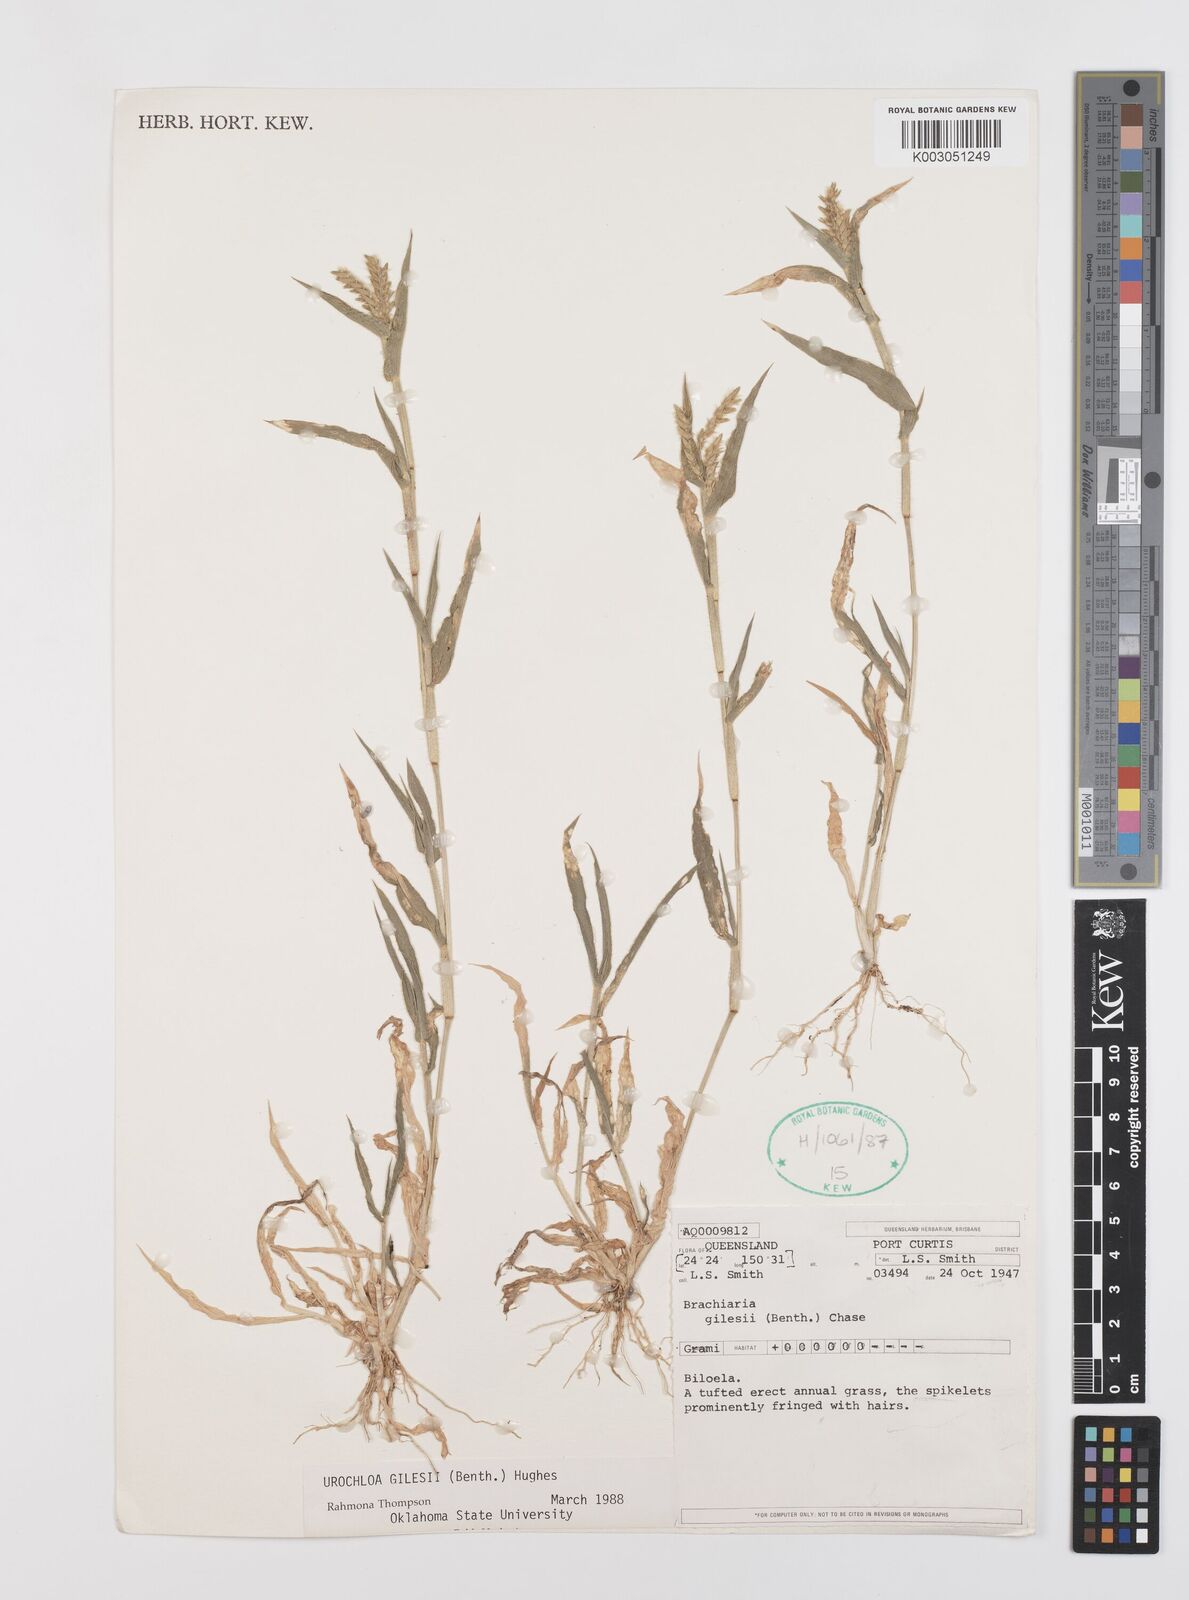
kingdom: Plantae
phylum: Tracheophyta
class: Liliopsida
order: Poales
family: Poaceae
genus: Urochloa
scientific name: Urochloa gilesii
